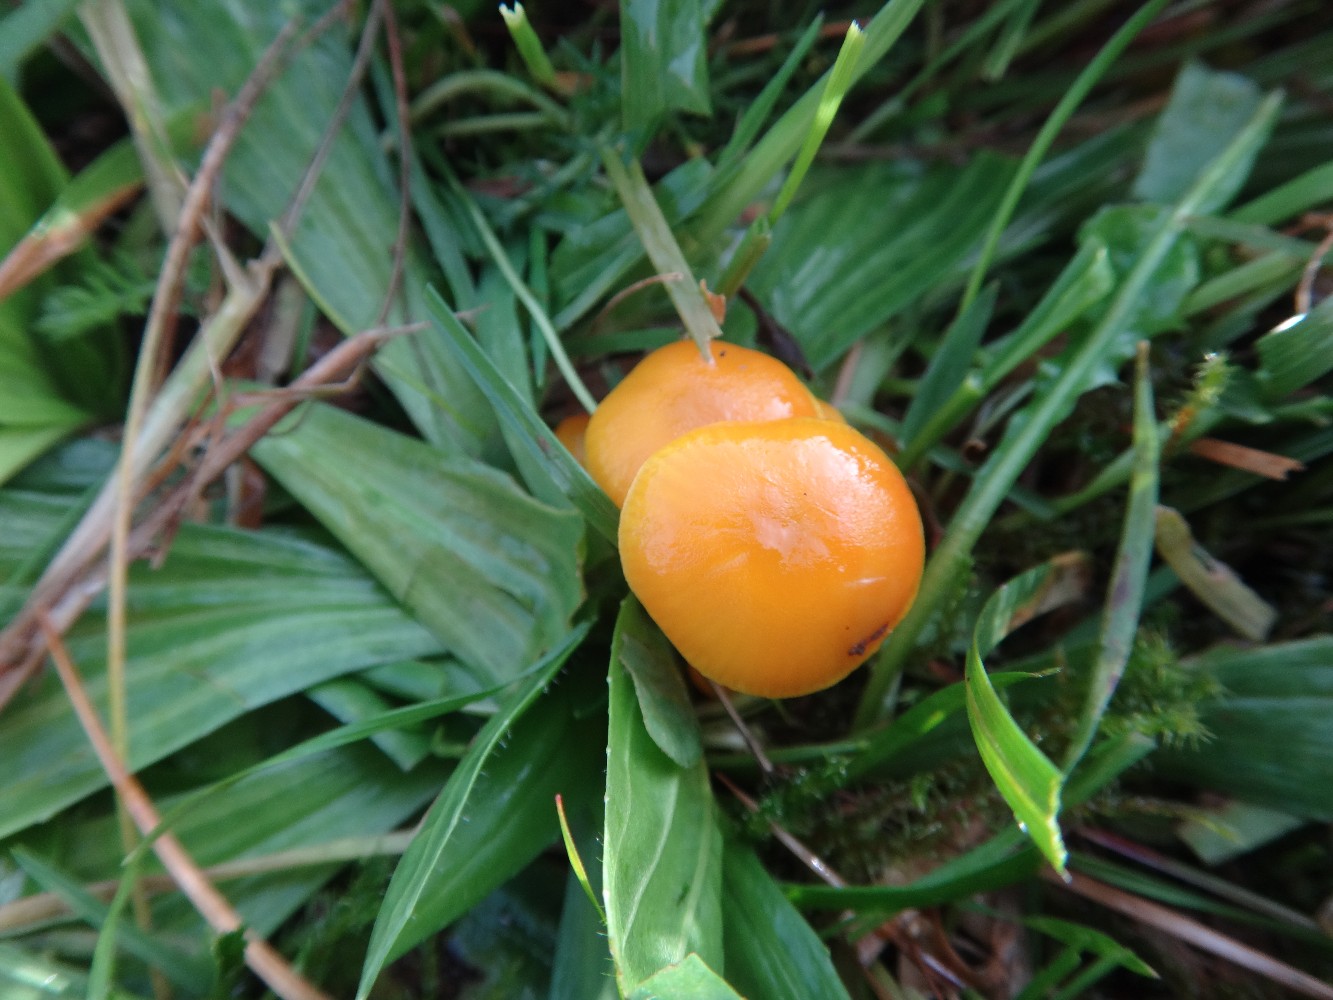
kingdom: Fungi
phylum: Basidiomycota
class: Agaricomycetes
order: Agaricales
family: Hygrophoraceae
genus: Hygrocybe
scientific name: Hygrocybe ceracea
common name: voksgul vokshat
